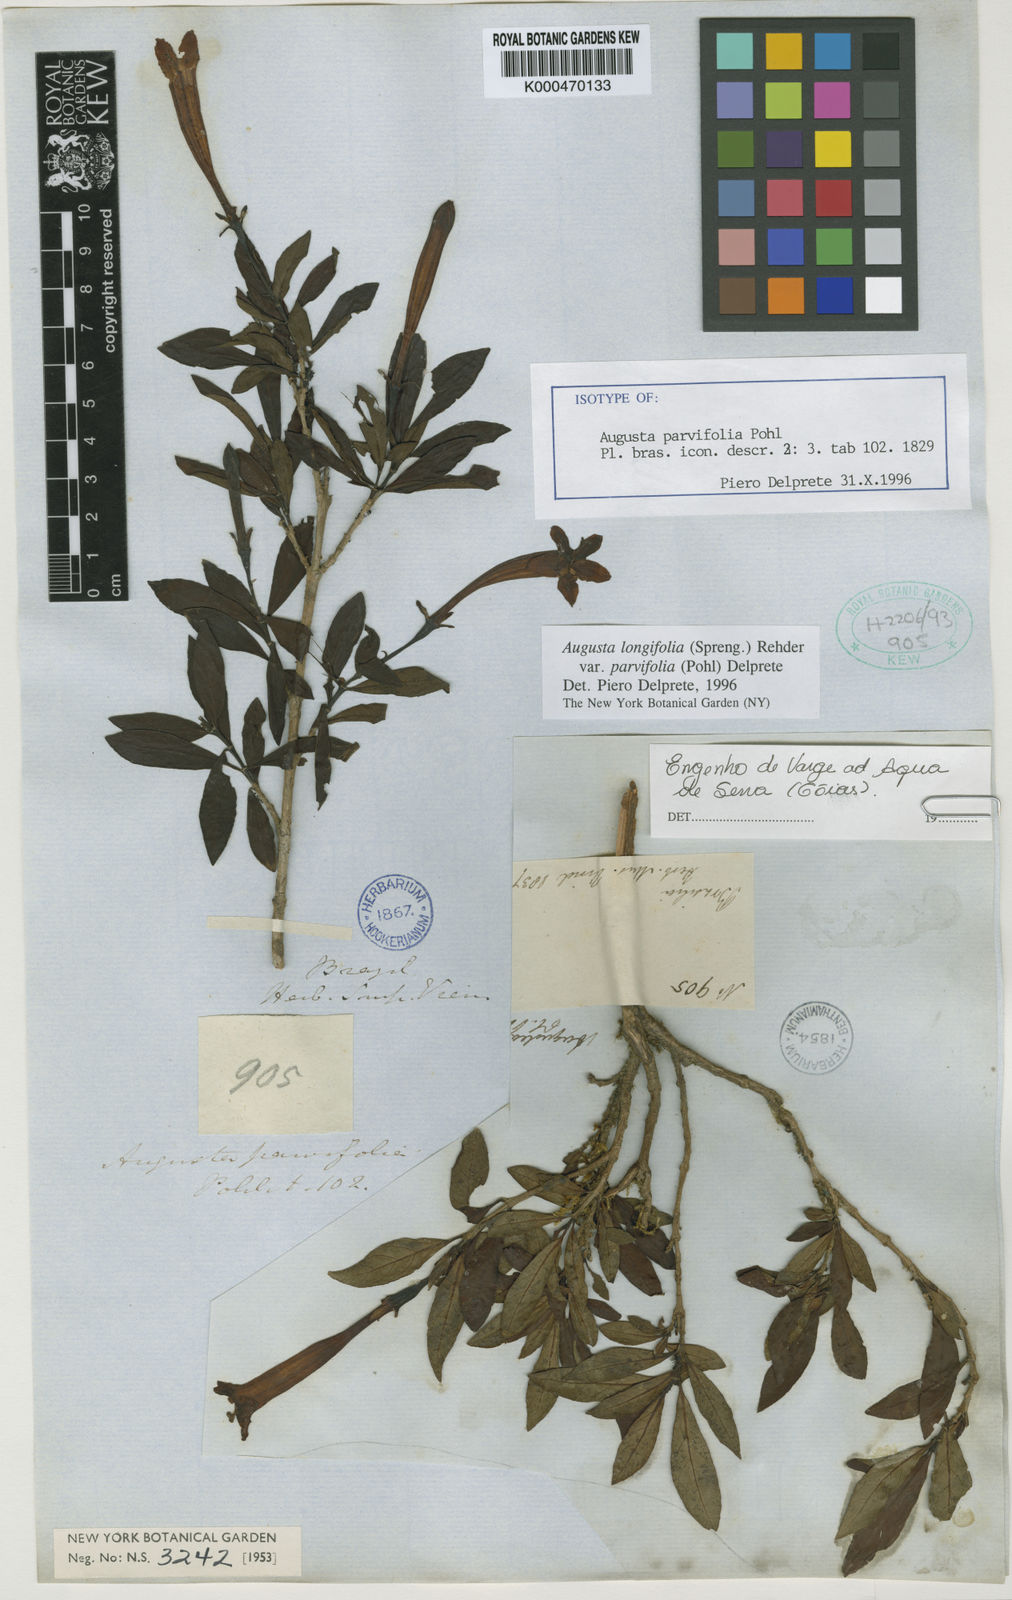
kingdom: Plantae
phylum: Tracheophyta
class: Magnoliopsida
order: Gentianales
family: Rubiaceae
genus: Augusta
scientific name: Augusta longifolia
